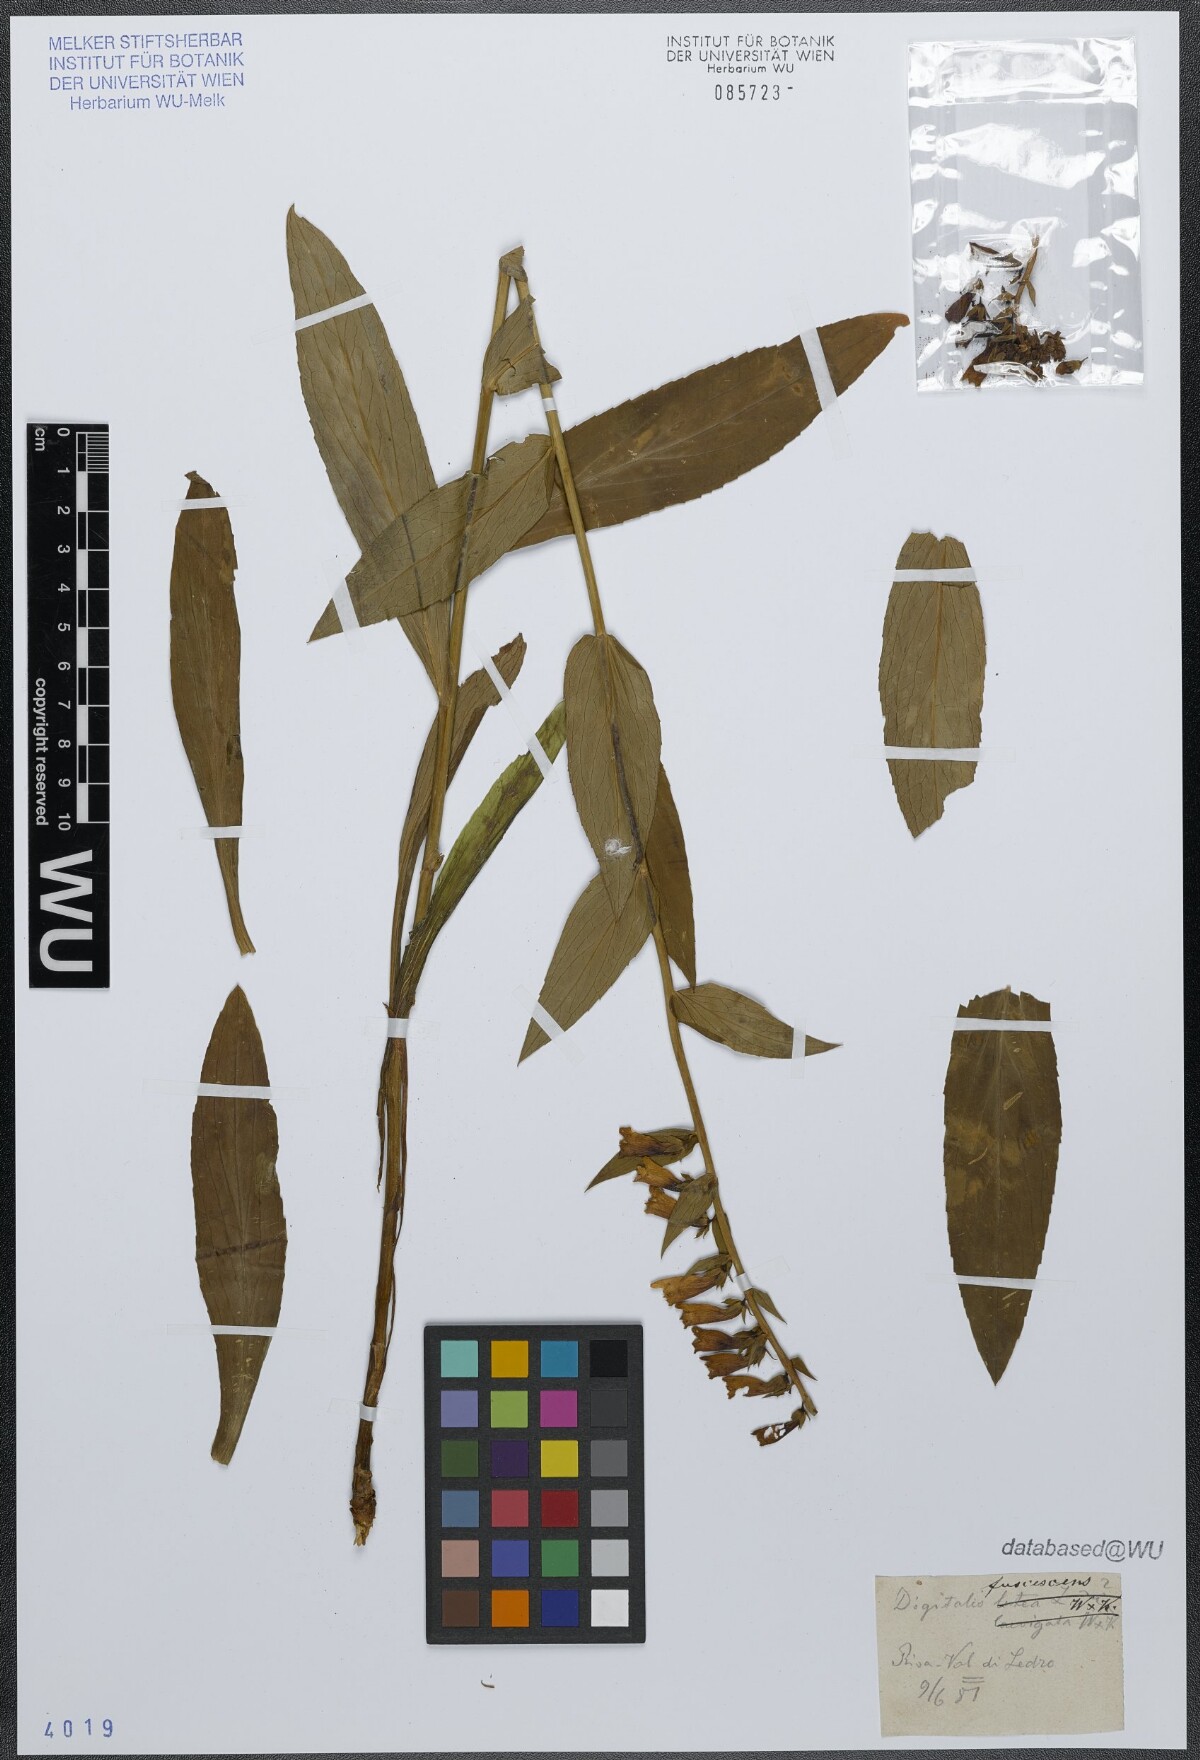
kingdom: Plantae
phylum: Tracheophyta
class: Magnoliopsida
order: Lamiales
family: Plantaginaceae
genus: Digitalis
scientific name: Digitalis fulva
